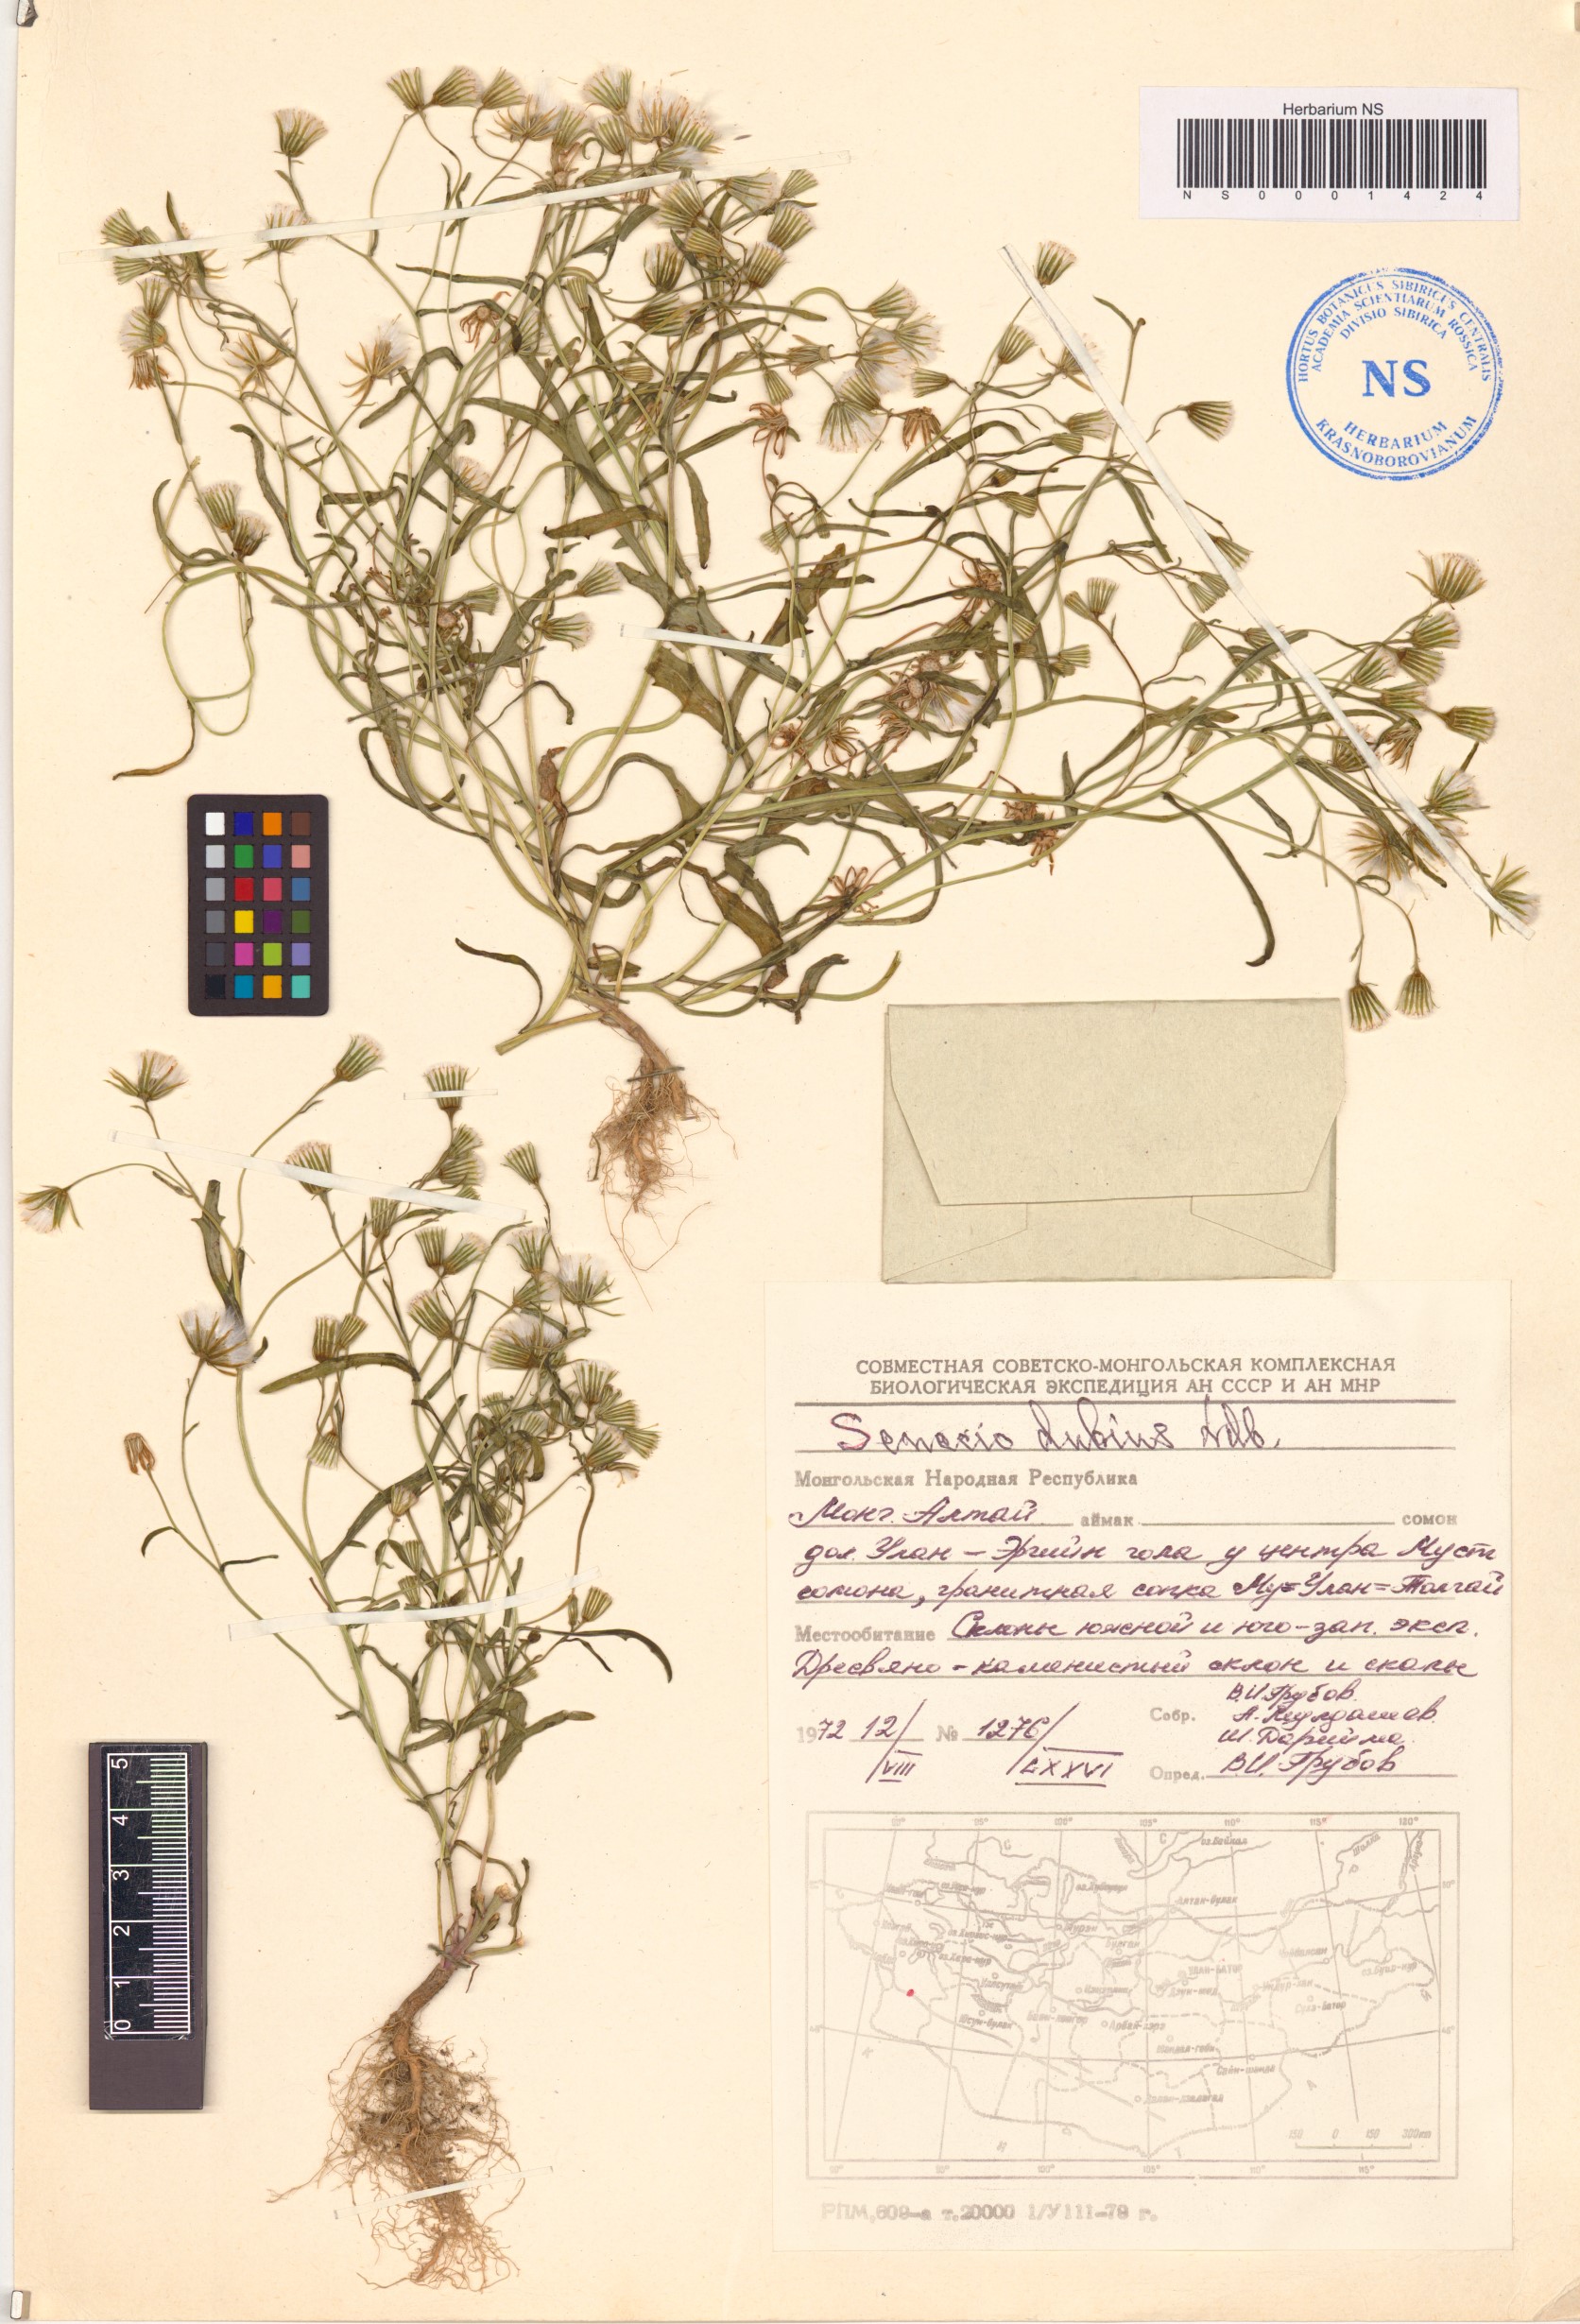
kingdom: Plantae
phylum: Tracheophyta
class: Magnoliopsida
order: Asterales
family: Asteraceae
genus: Senecio
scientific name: Senecio dubitabilis
